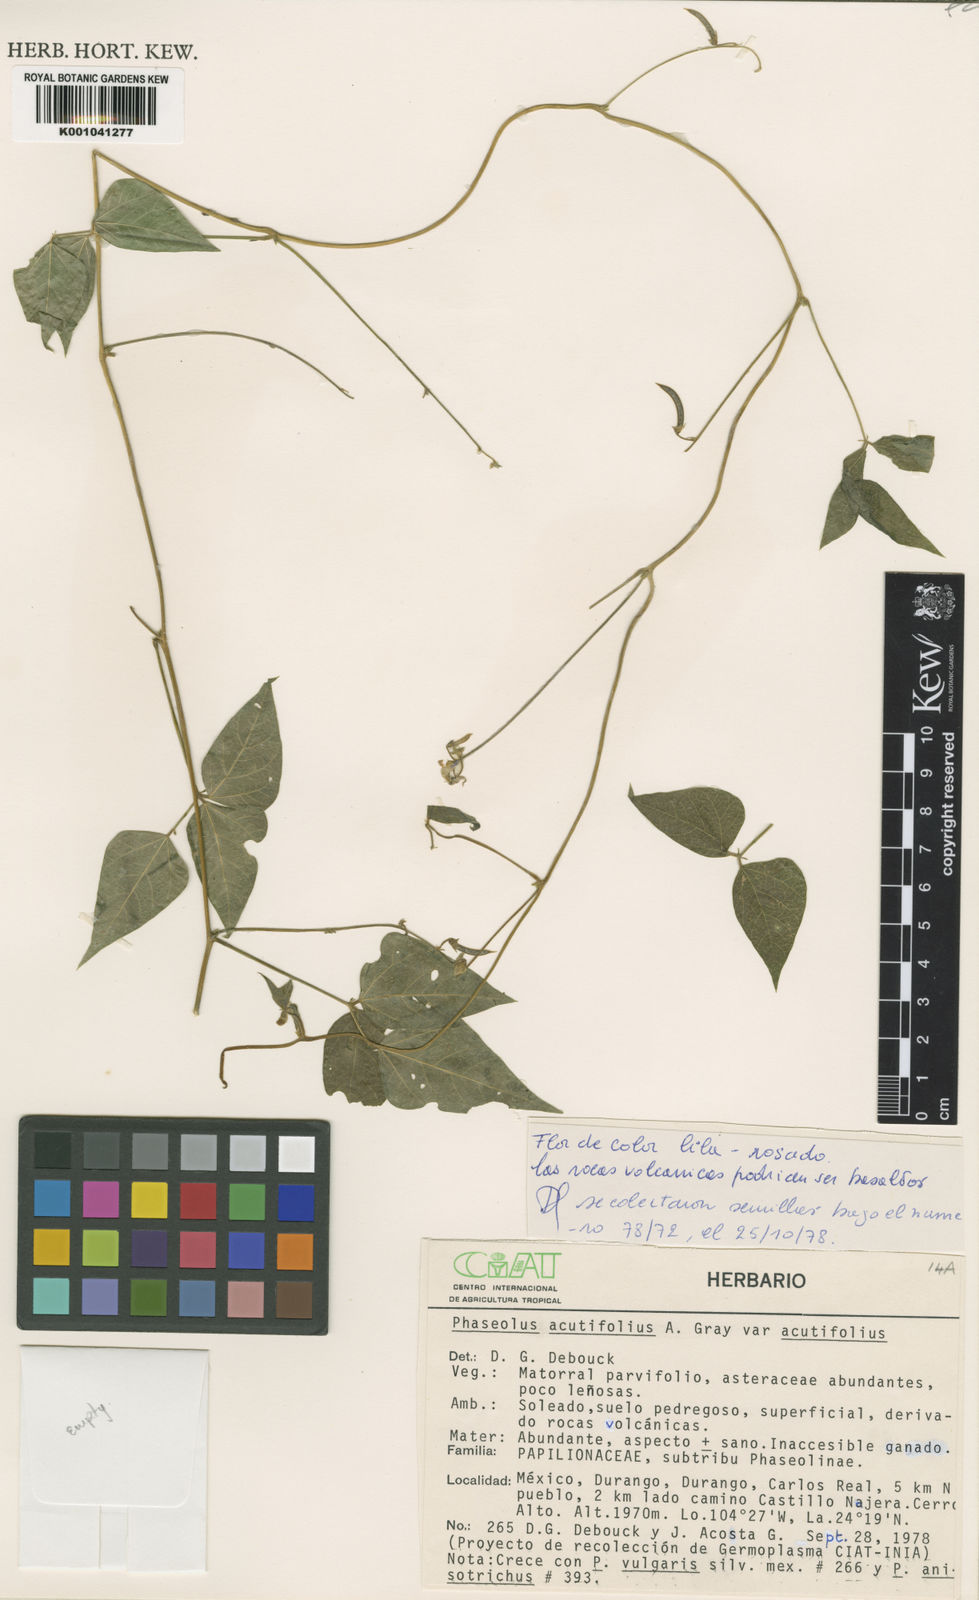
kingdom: Plantae
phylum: Tracheophyta
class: Magnoliopsida
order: Fabales
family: Fabaceae
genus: Phaseolus
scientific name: Phaseolus acutifolius
